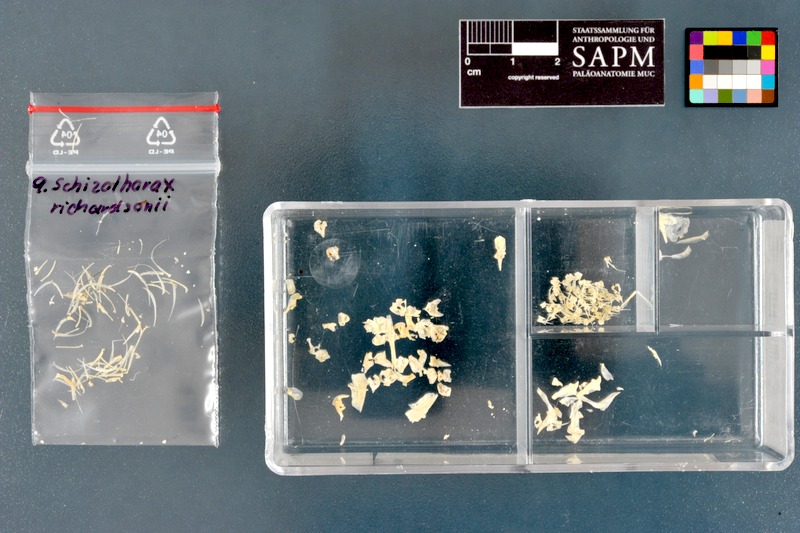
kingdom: Animalia
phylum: Chordata
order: Cypriniformes
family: Cyprinidae
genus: Schizothorax
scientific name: Schizothorax richardsonii
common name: Alawan snowtrout
